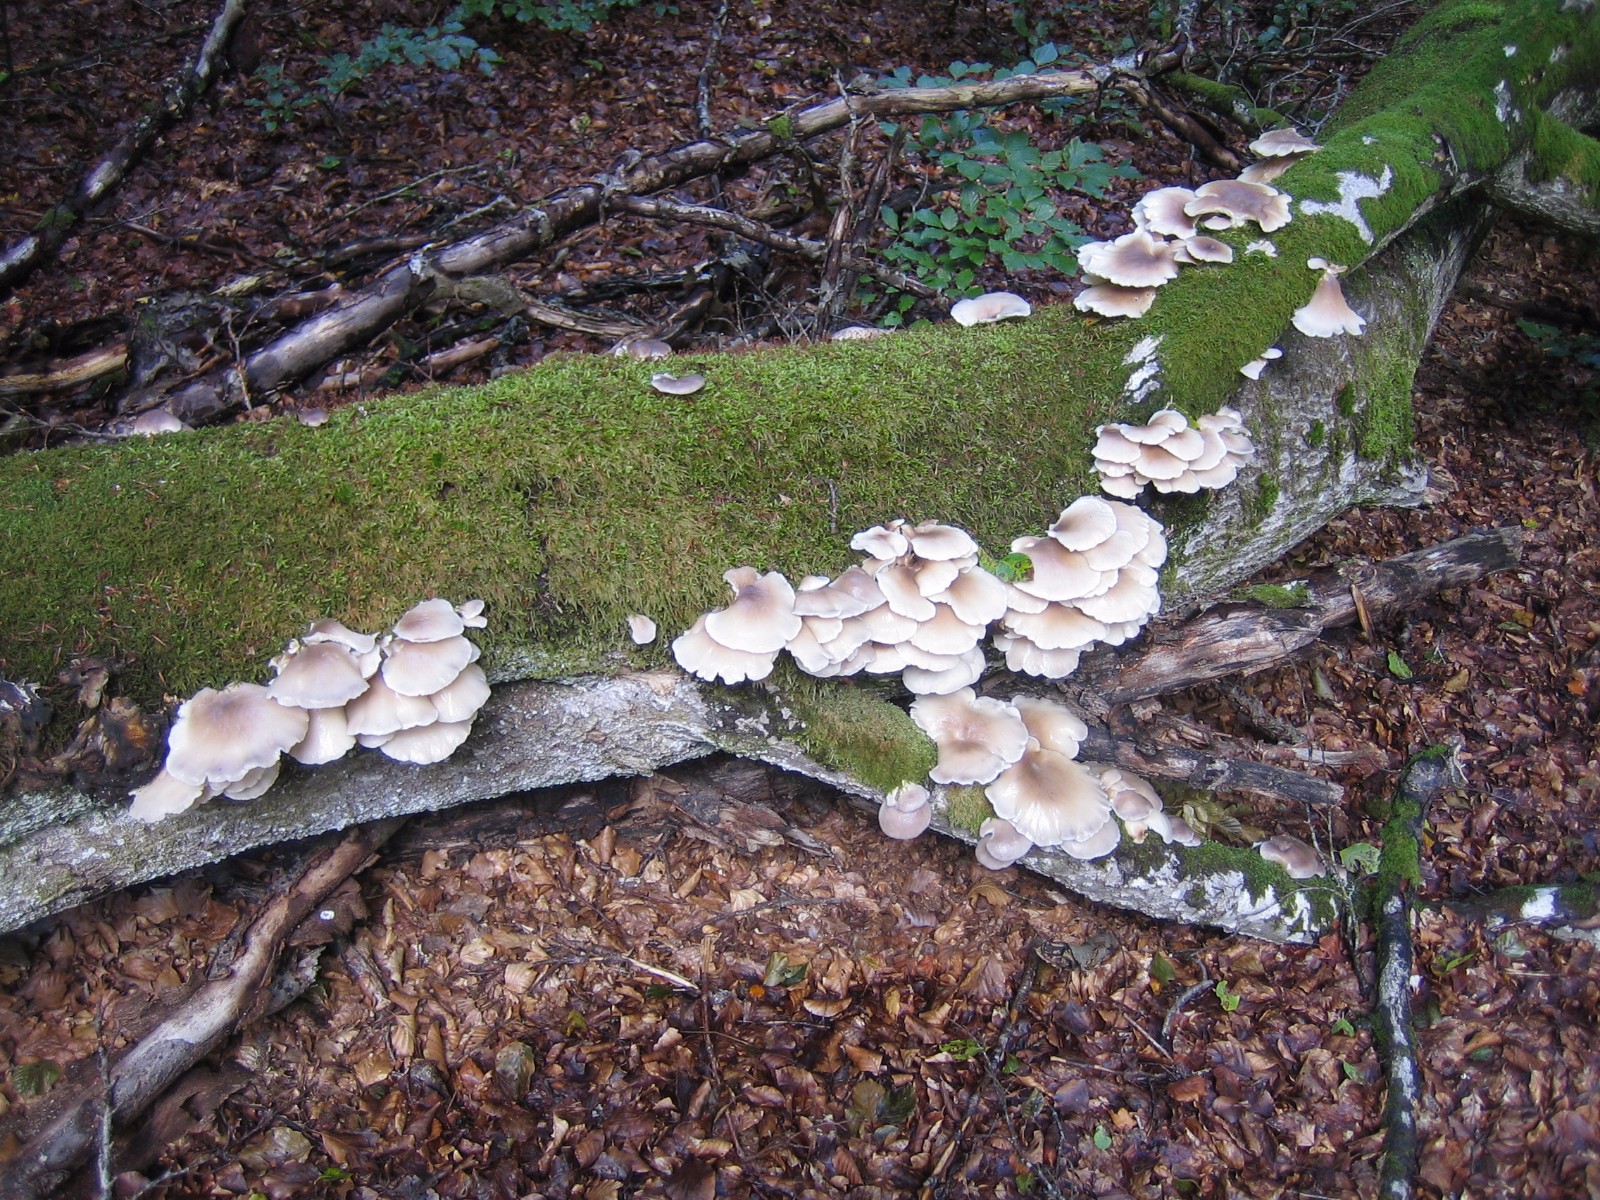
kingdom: Fungi
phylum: Basidiomycota
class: Agaricomycetes
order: Agaricales
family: Pleurotaceae
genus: Pleurotus
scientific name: Pleurotus pulmonarius
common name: sommer-østershat
